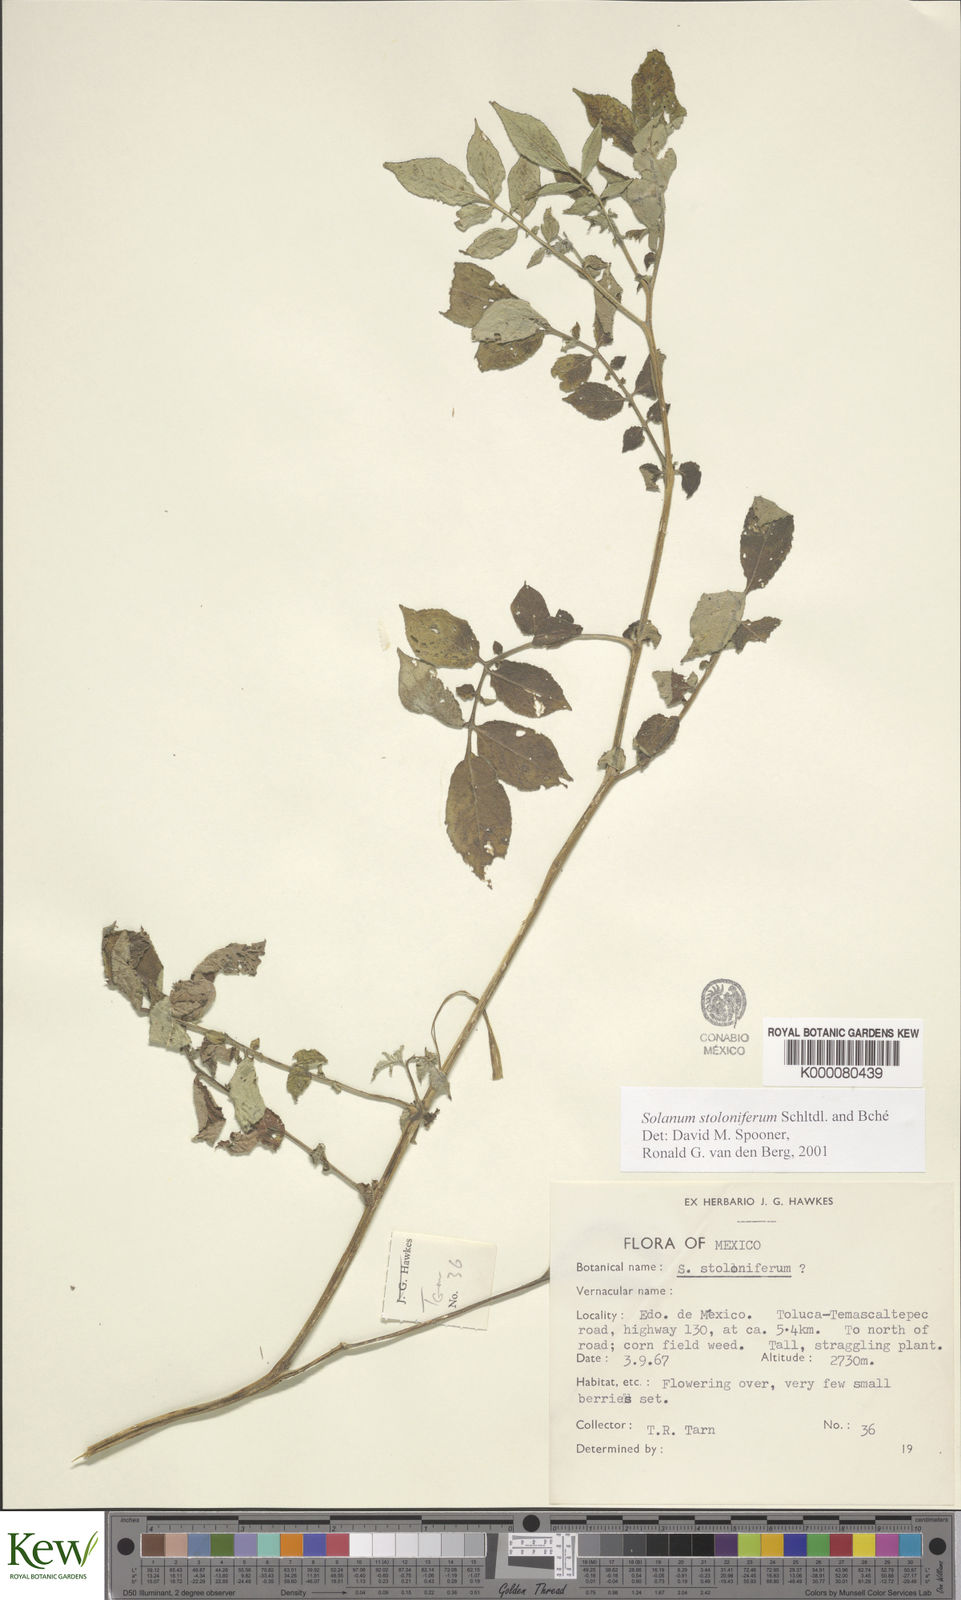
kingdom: Plantae
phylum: Tracheophyta
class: Magnoliopsida
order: Solanales
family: Solanaceae
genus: Solanum
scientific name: Solanum stoloniferum
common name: Fendler's nighshade
